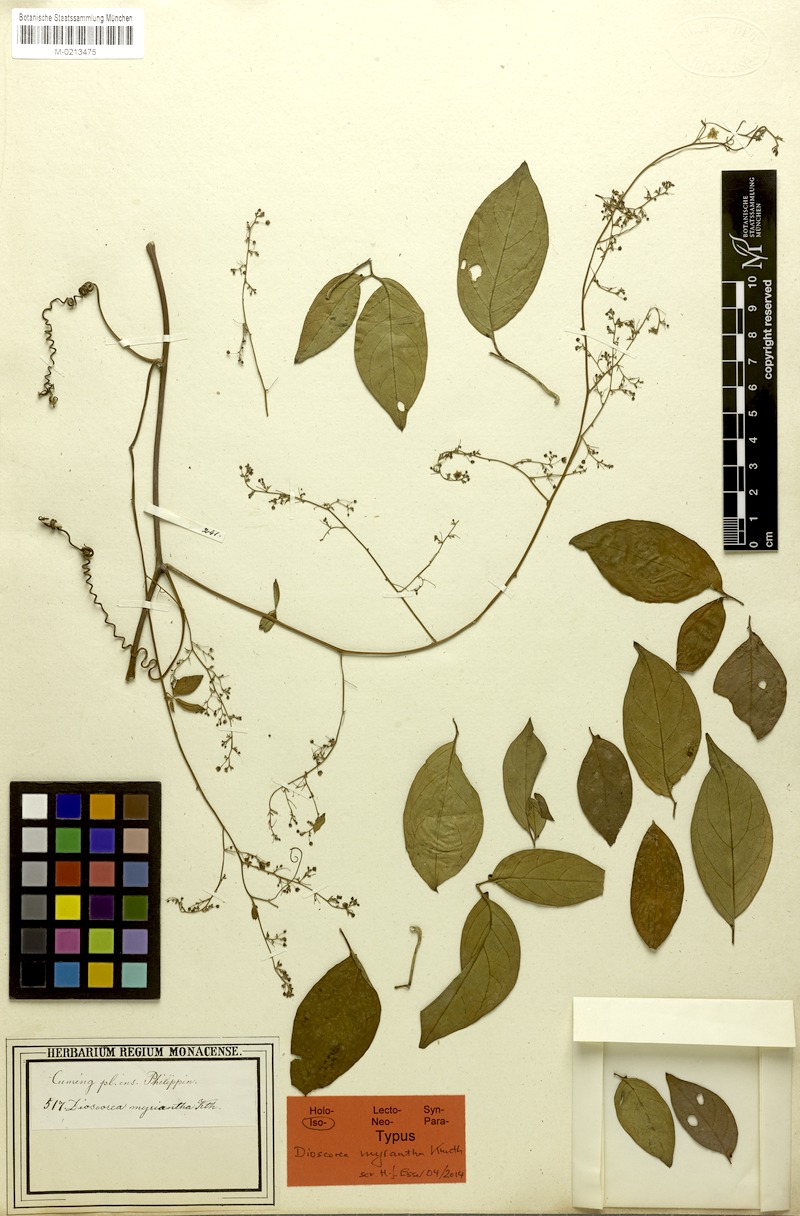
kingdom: Plantae
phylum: Tracheophyta
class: Liliopsida
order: Dioscoreales
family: Dioscoreaceae
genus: Dioscorea
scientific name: Dioscorea filiformis
